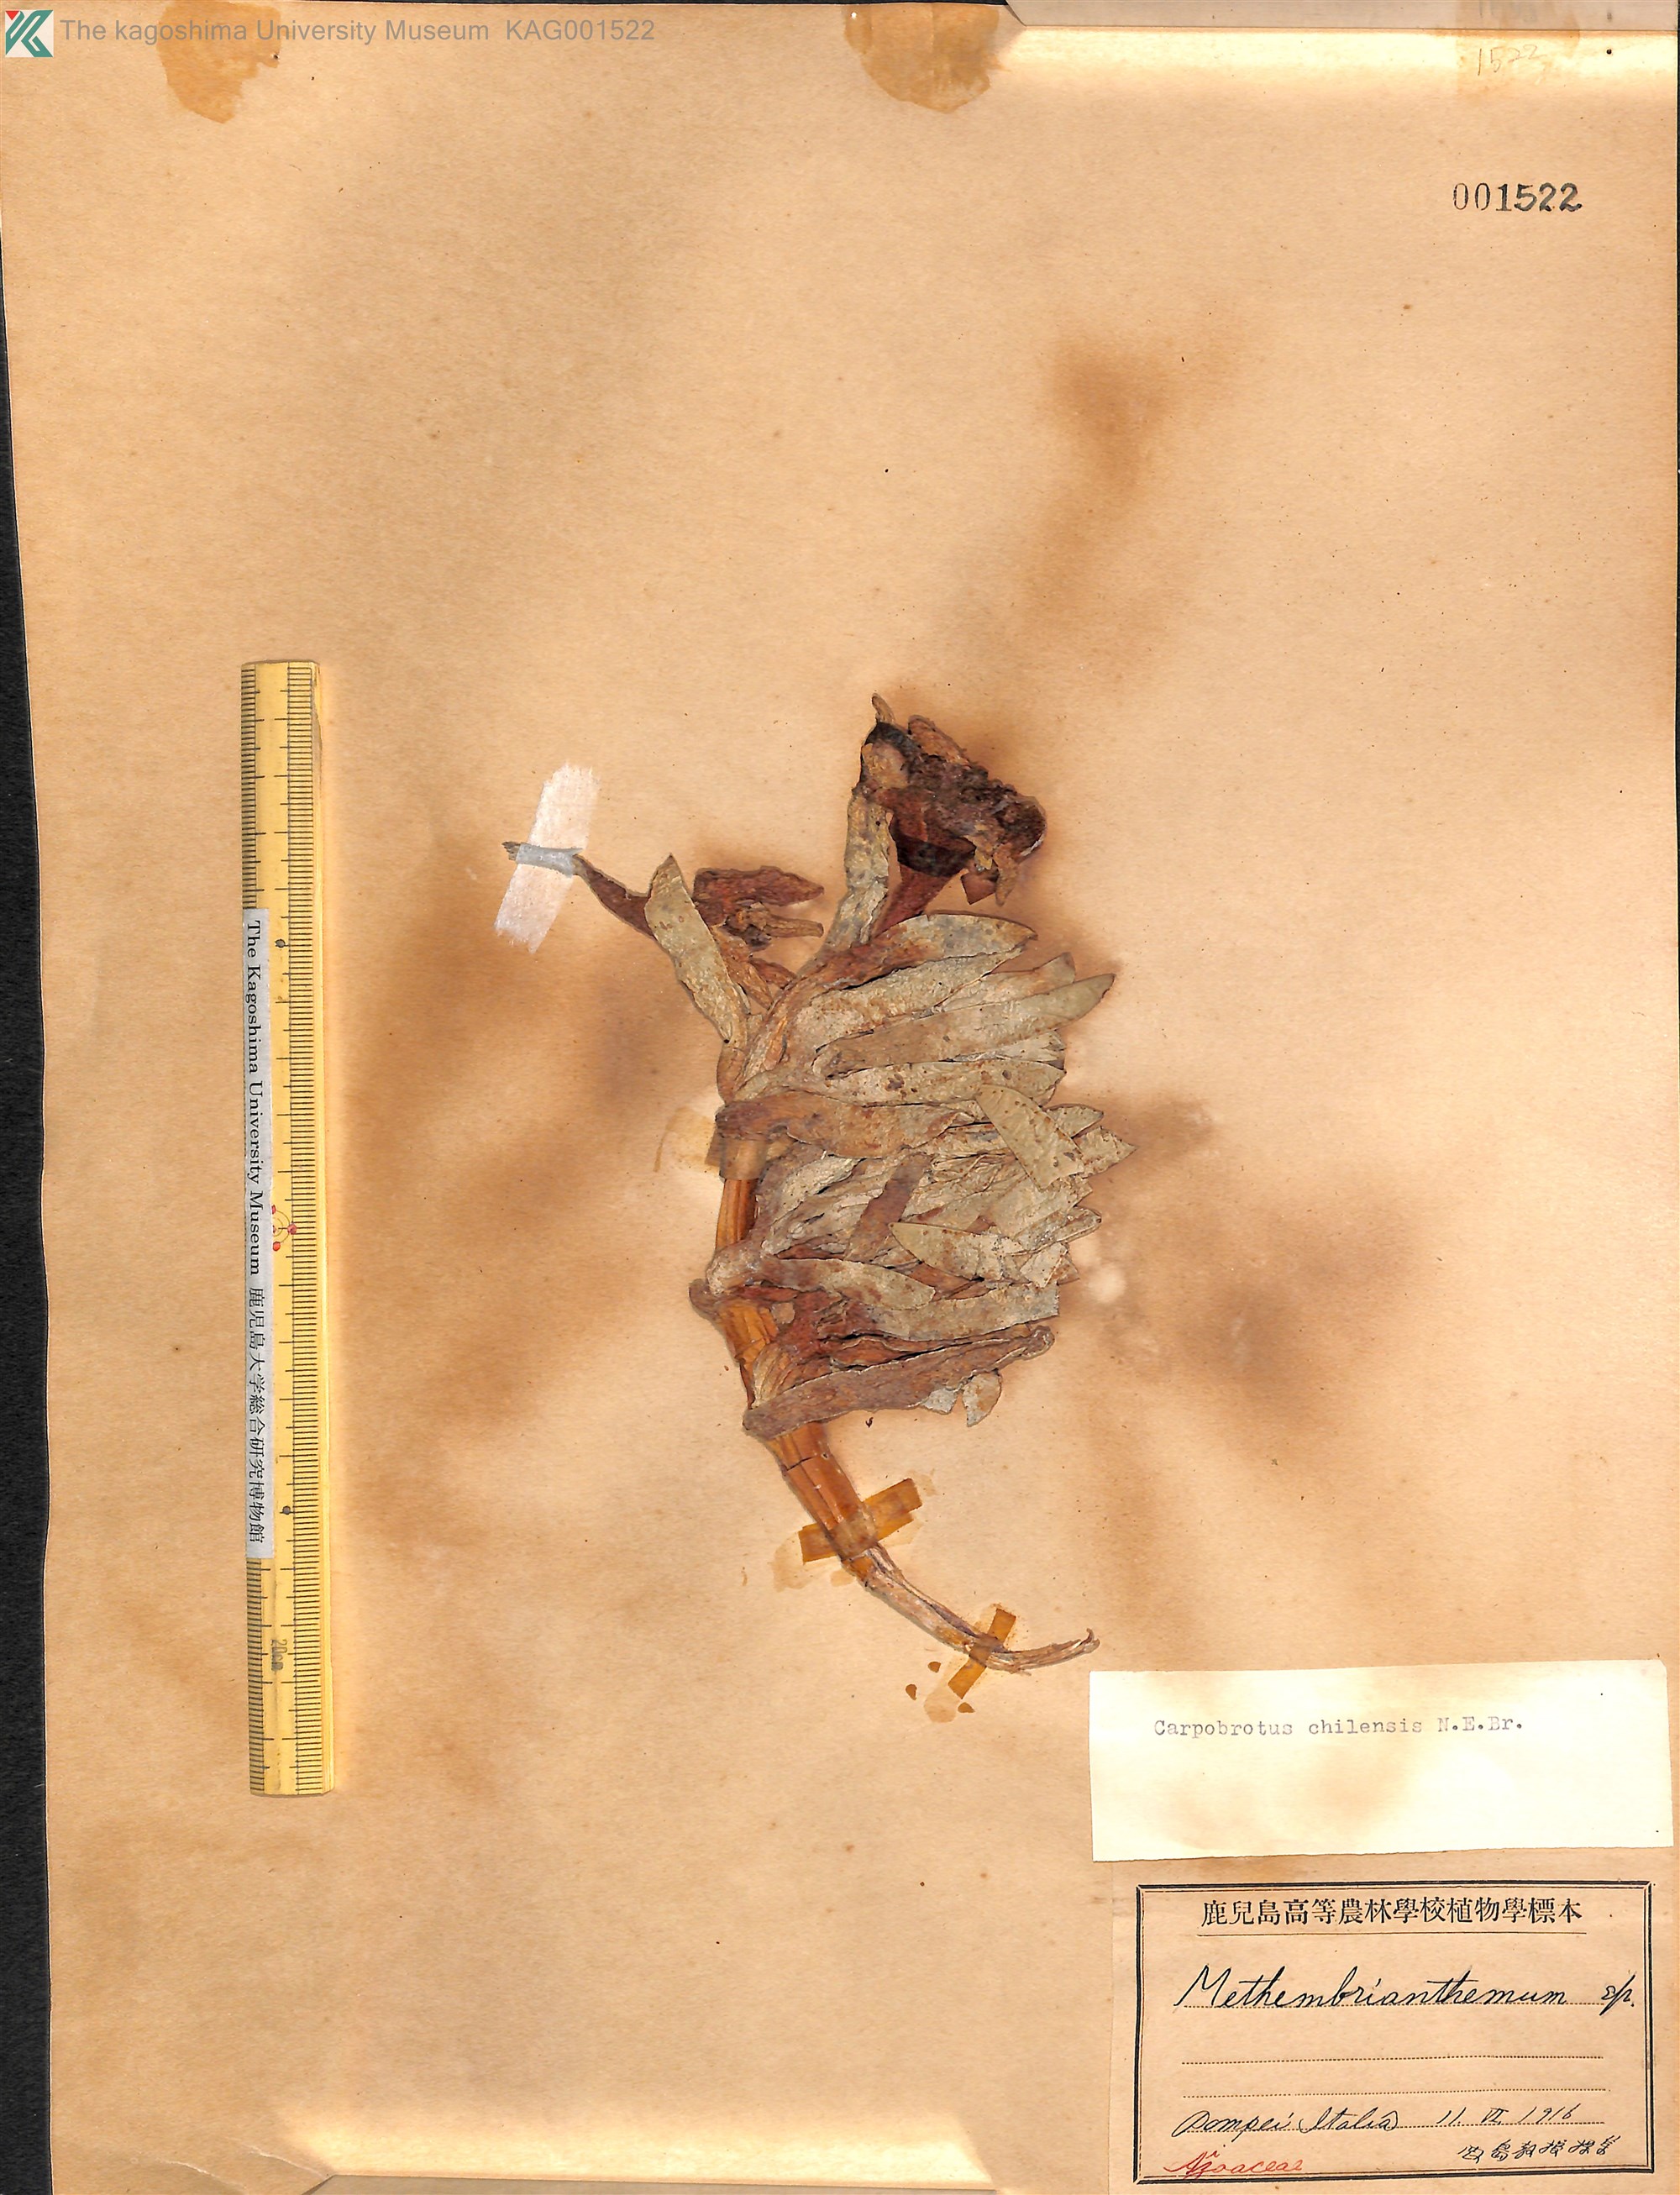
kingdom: Plantae
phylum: Tracheophyta
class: Magnoliopsida
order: Caryophyllales
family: Aizoaceae
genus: Carpobrotus
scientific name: Carpobrotus chilensis
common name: Sea fig
